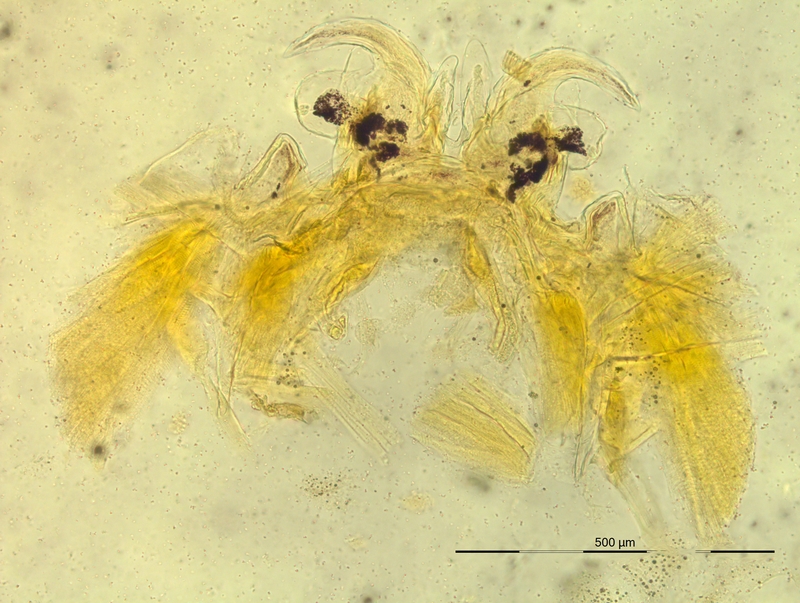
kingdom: Animalia
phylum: Arthropoda
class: Diplopoda
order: Chordeumatida
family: Craspedosomatidae
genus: Oroposoma
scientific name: Oroposoma varallense
